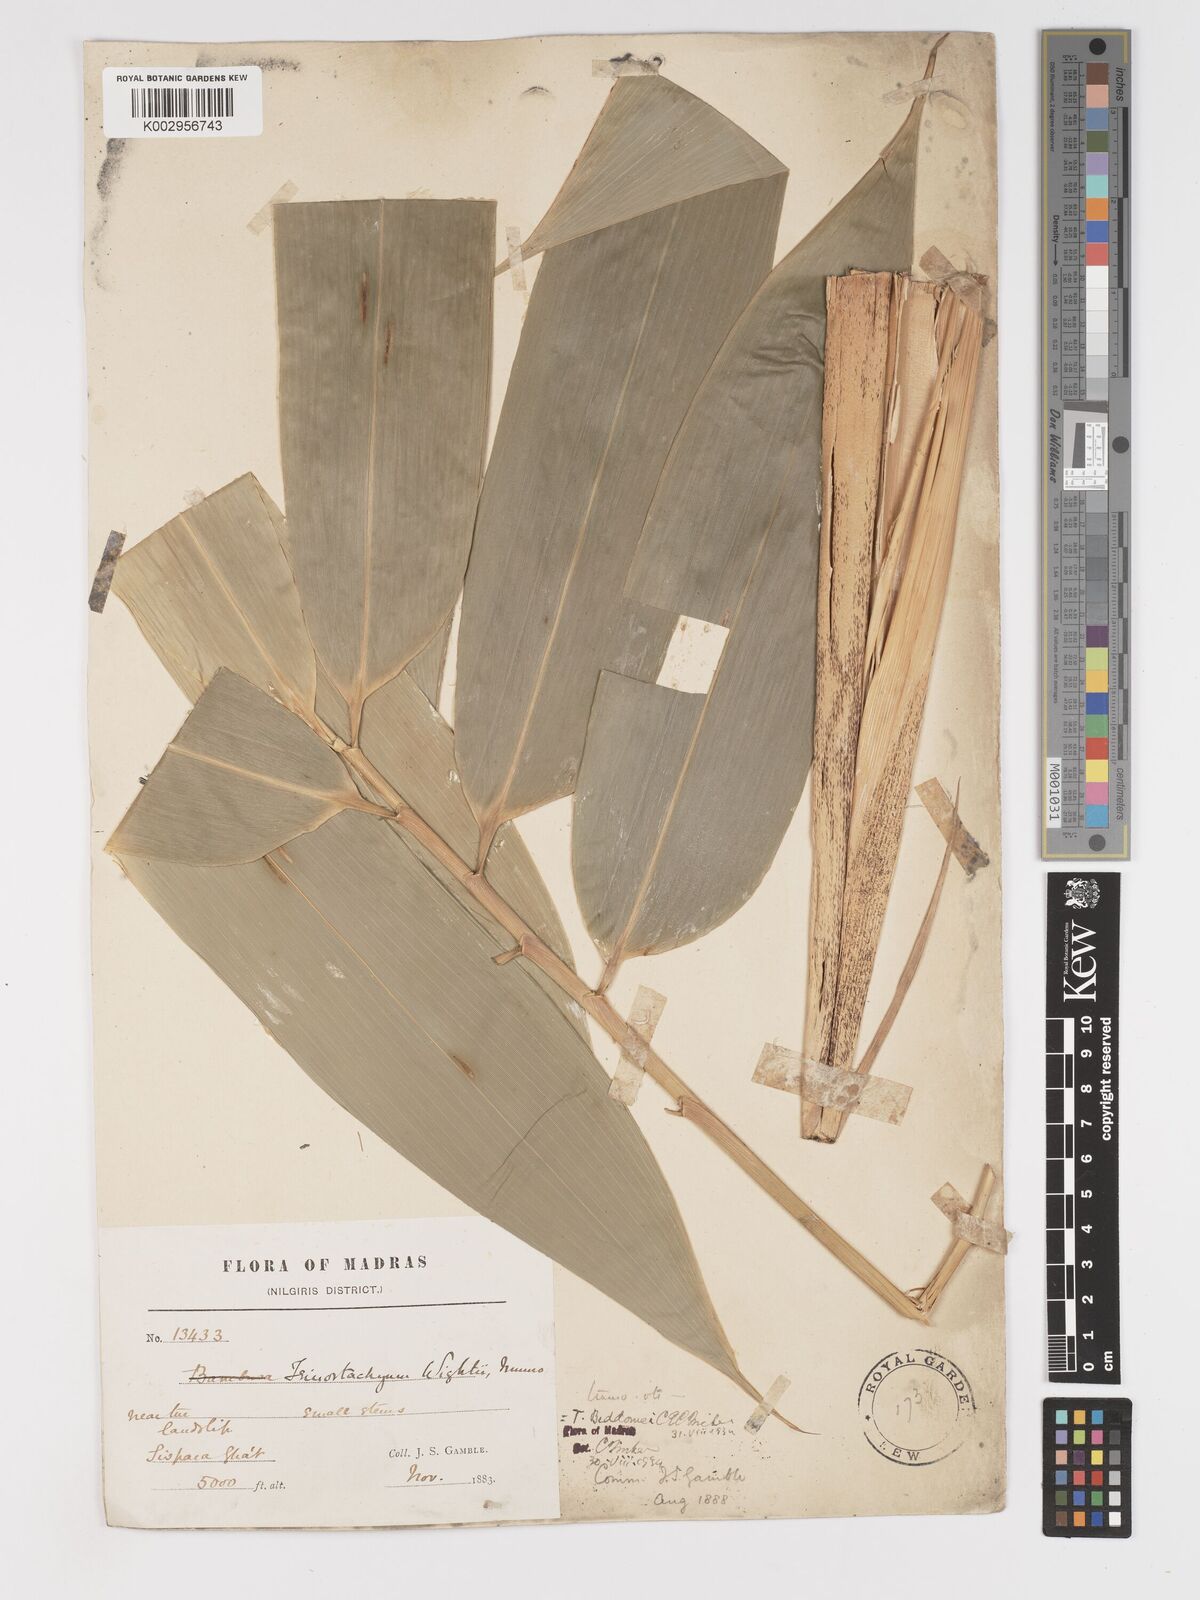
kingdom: Plantae
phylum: Tracheophyta
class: Liliopsida
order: Poales
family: Poaceae
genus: Ochlandra
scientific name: Ochlandra wightii
